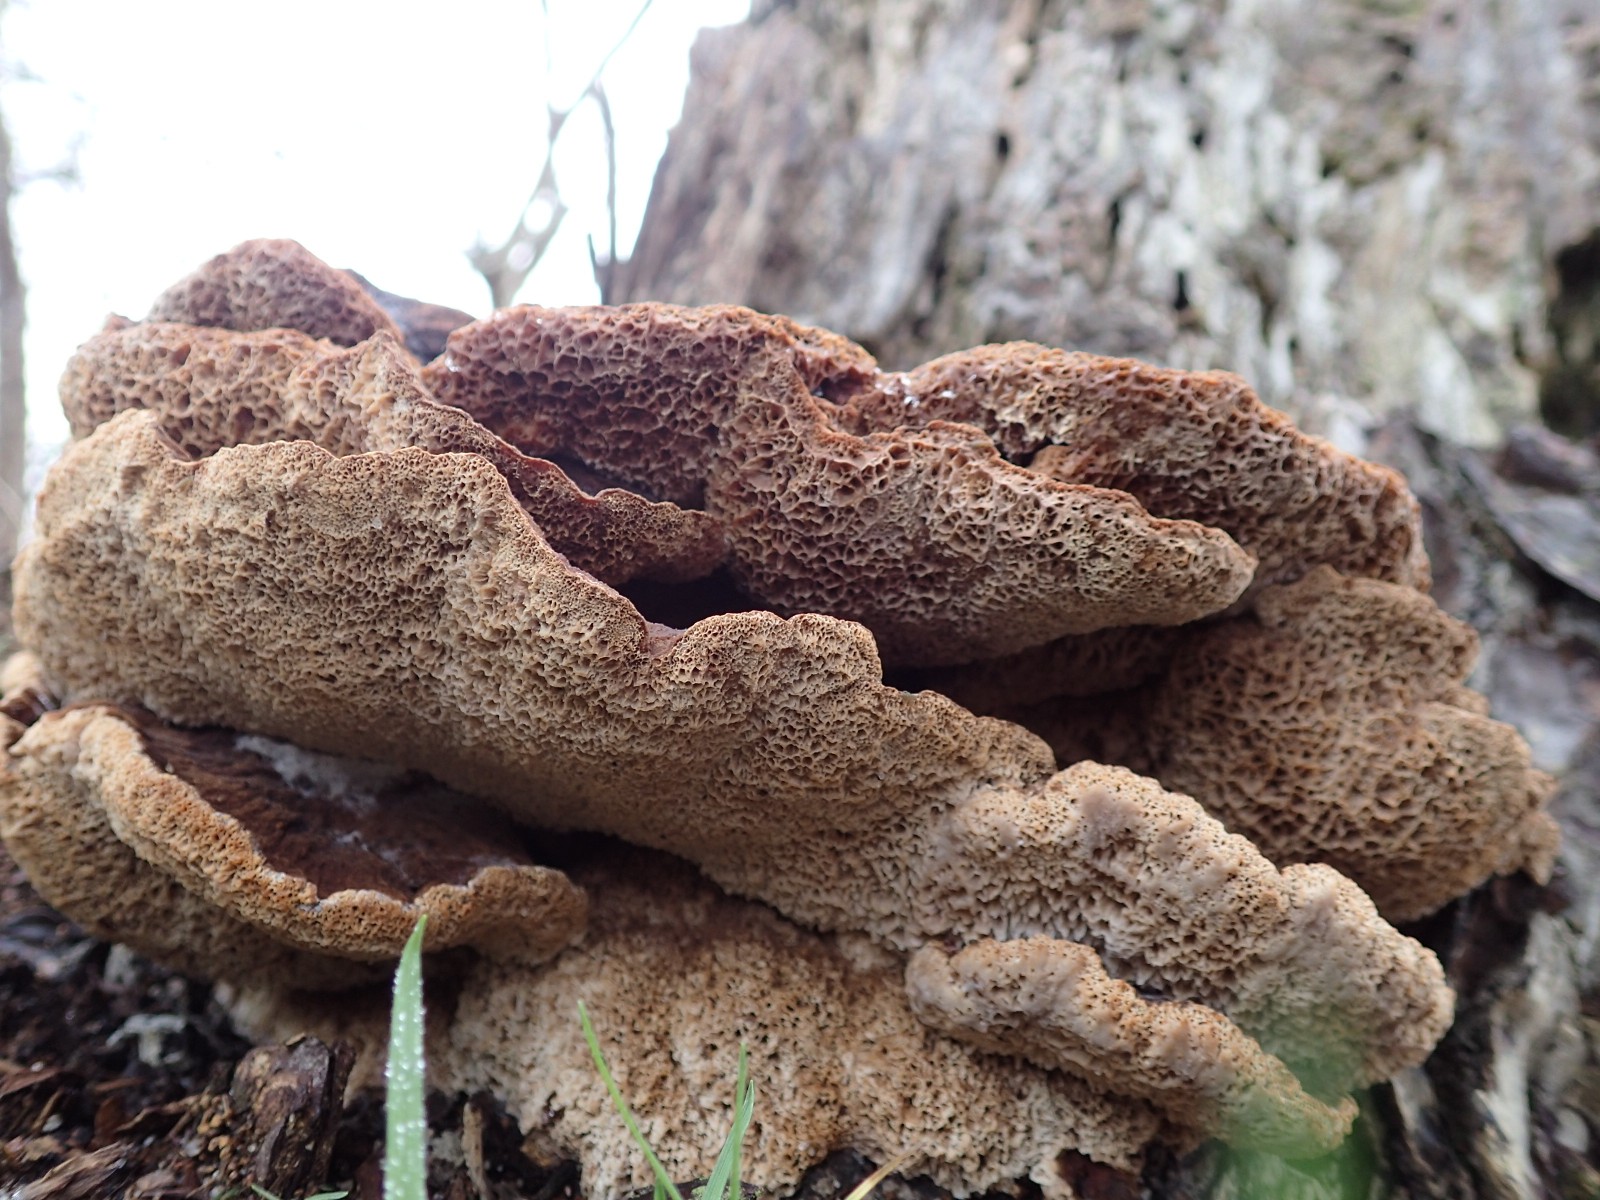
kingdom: Fungi
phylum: Basidiomycota
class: Agaricomycetes
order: Polyporales
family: Ischnodermataceae
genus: Ischnoderma
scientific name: Ischnoderma benzoinum
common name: gran-tjæreporesvamp
